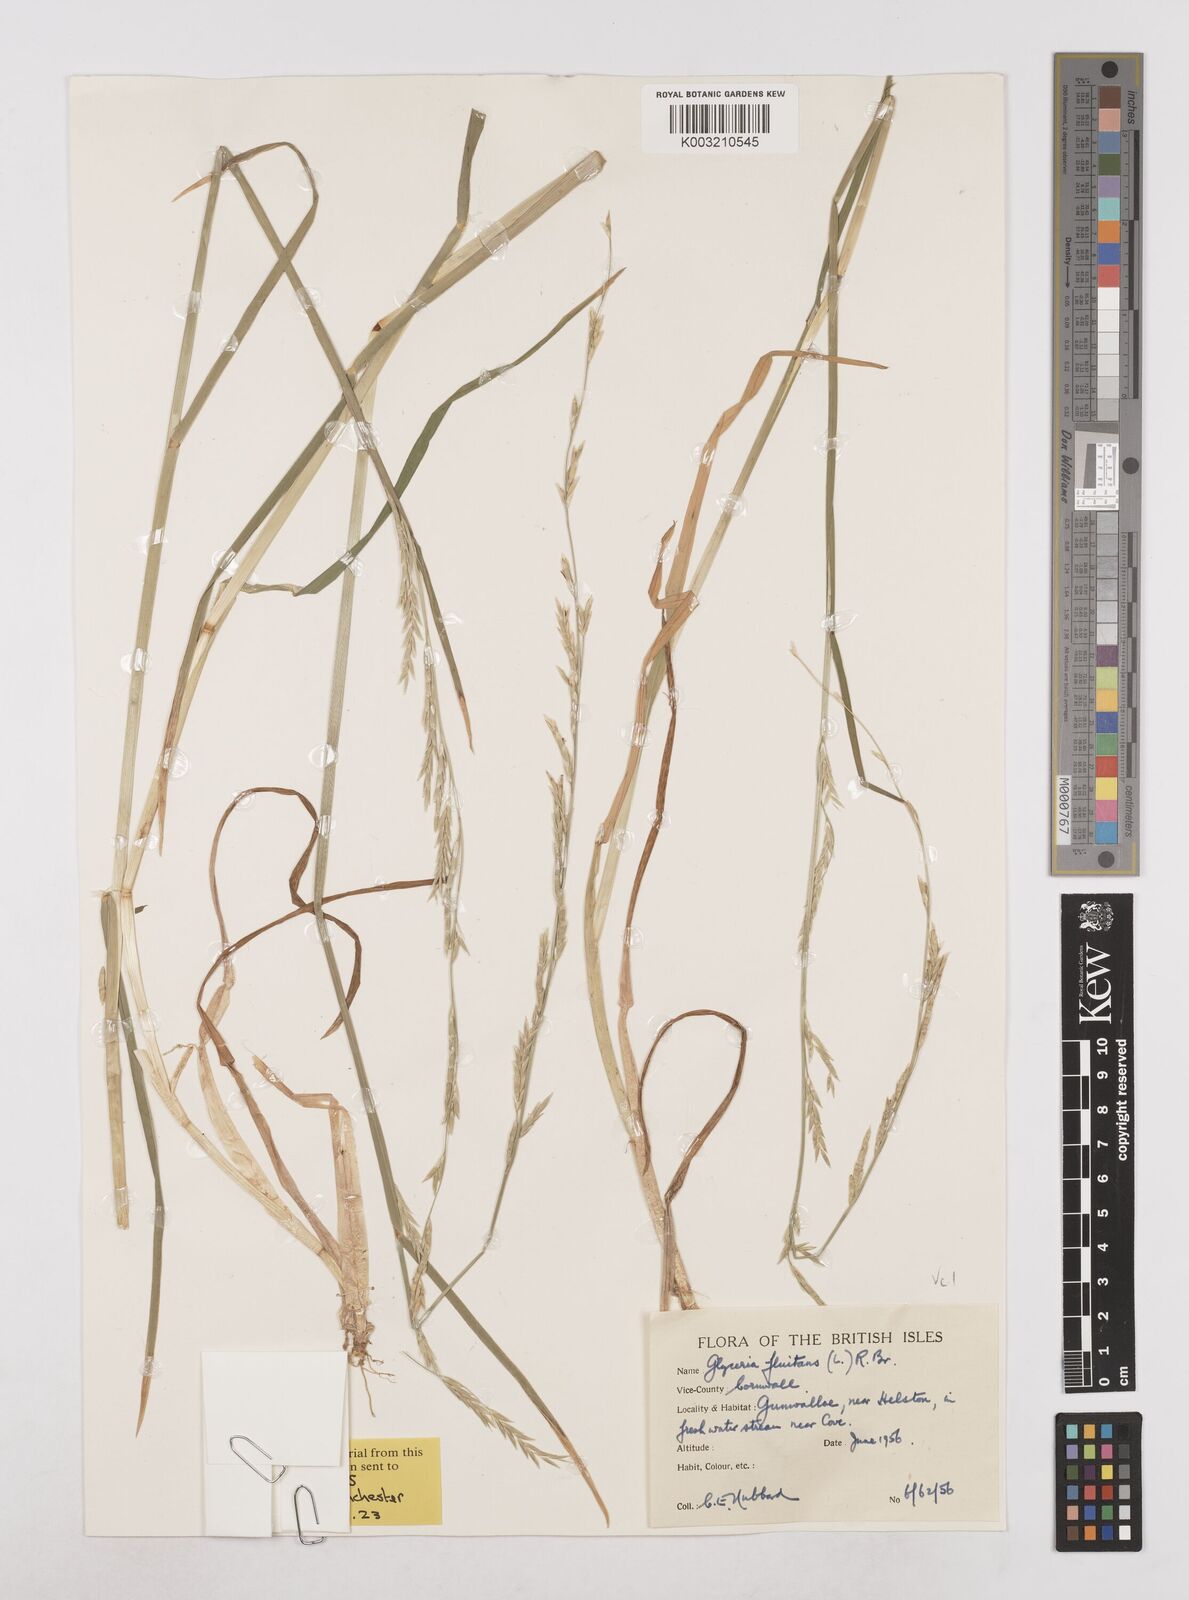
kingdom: Plantae
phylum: Tracheophyta
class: Liliopsida
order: Poales
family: Poaceae
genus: Glyceria
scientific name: Glyceria fluitans
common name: Floating sweet-grass
